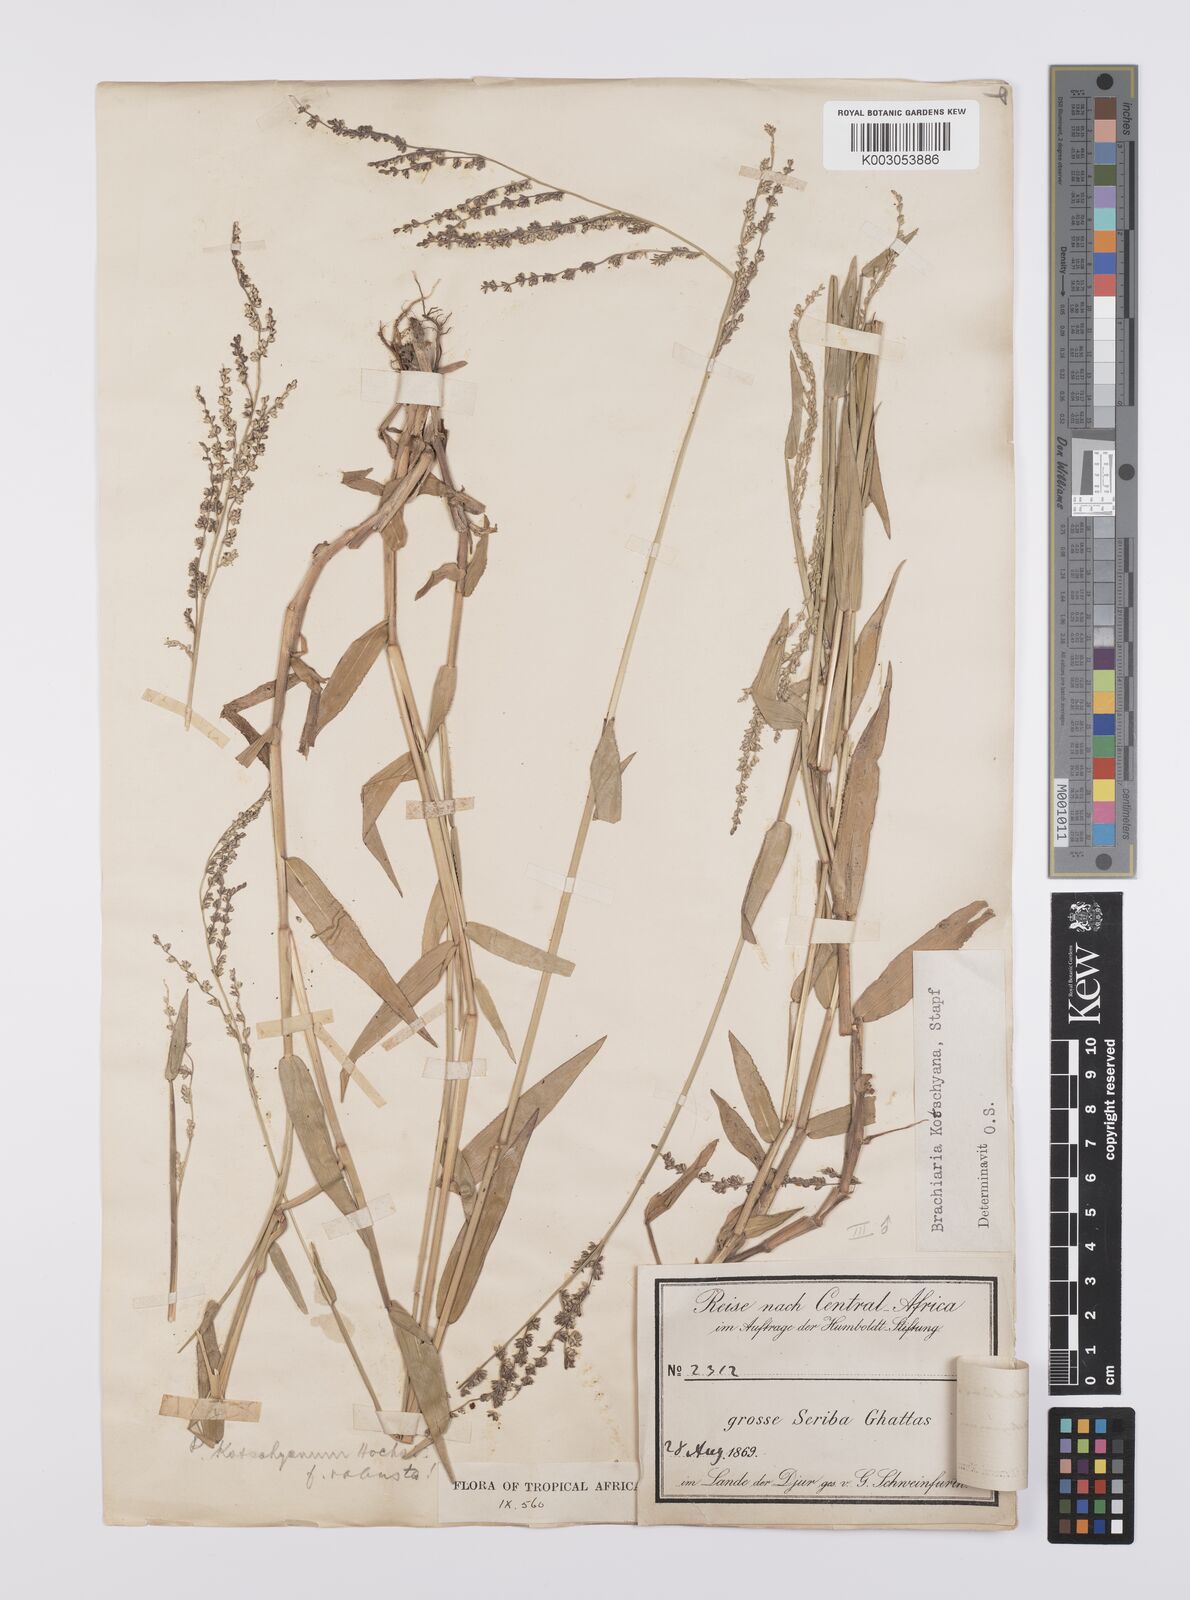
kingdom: Plantae
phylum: Tracheophyta
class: Liliopsida
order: Poales
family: Poaceae
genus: Urochloa
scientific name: Urochloa comata
